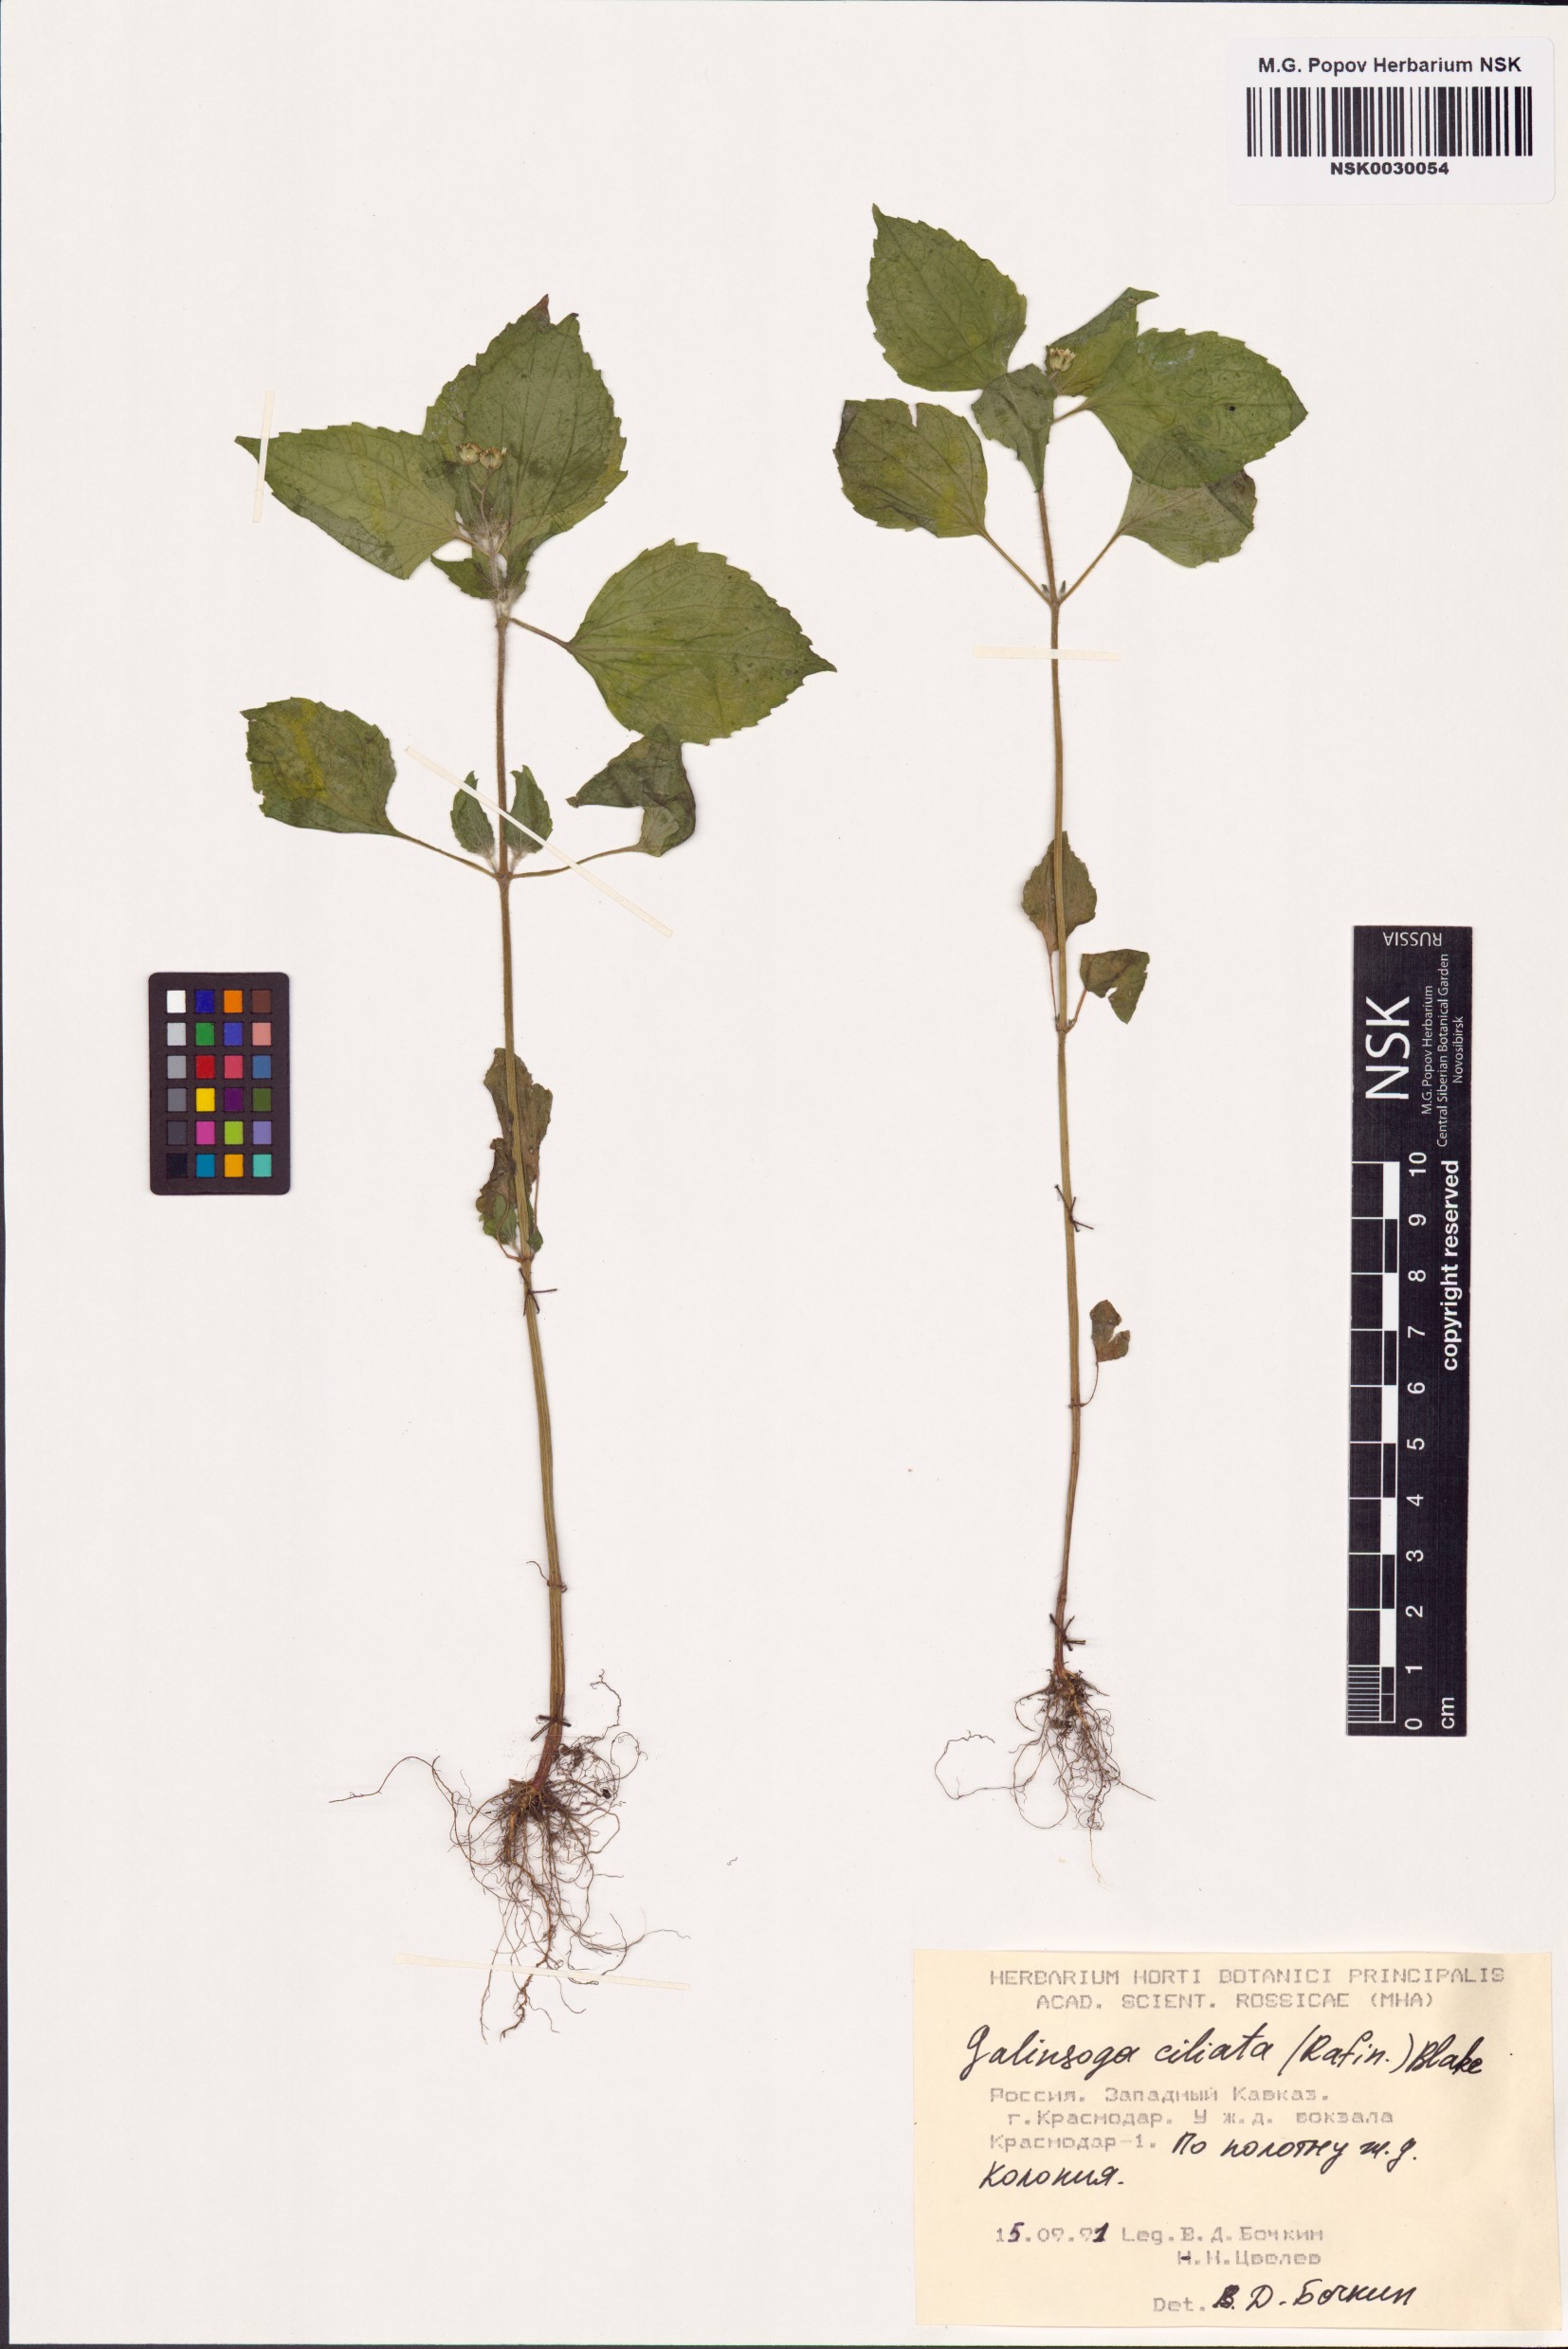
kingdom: Plantae
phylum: Tracheophyta
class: Magnoliopsida
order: Asterales
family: Asteraceae
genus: Galinsoga
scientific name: Galinsoga quadriradiata
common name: Shaggy soldier
